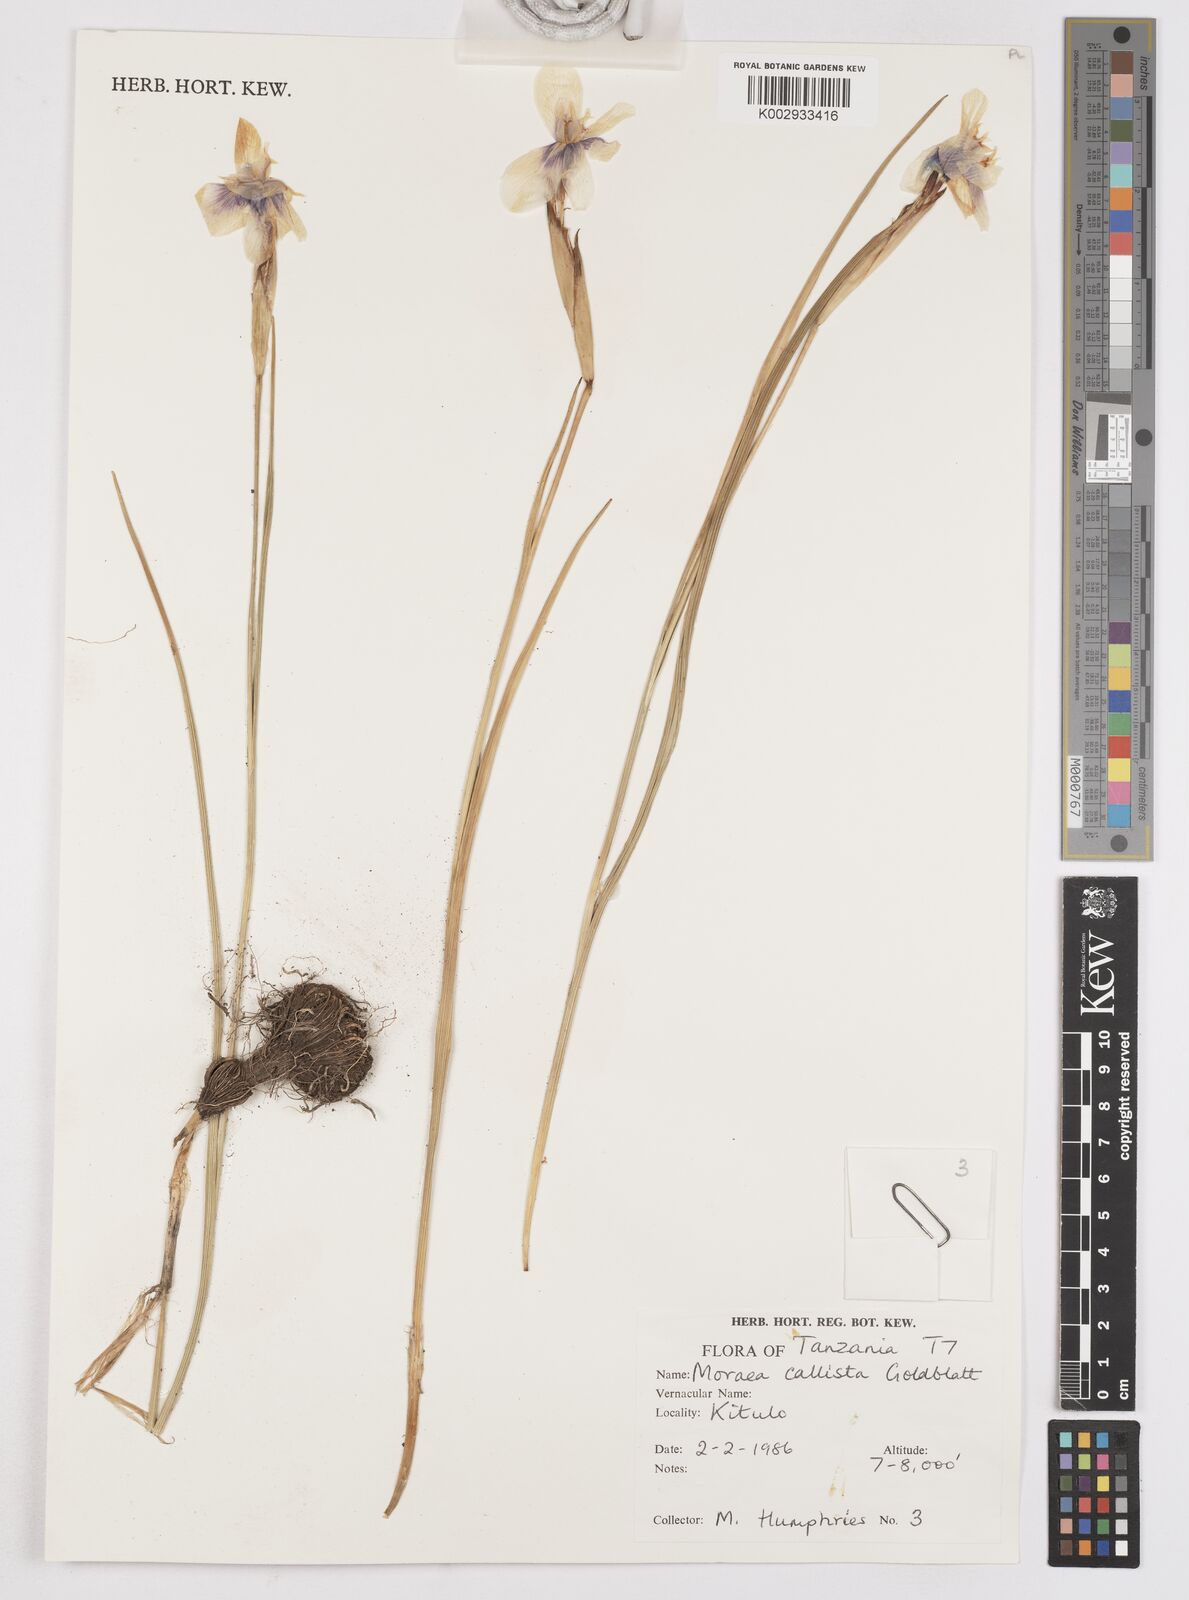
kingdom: Plantae
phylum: Tracheophyta
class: Liliopsida
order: Asparagales
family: Iridaceae
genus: Moraea
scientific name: Moraea callista
